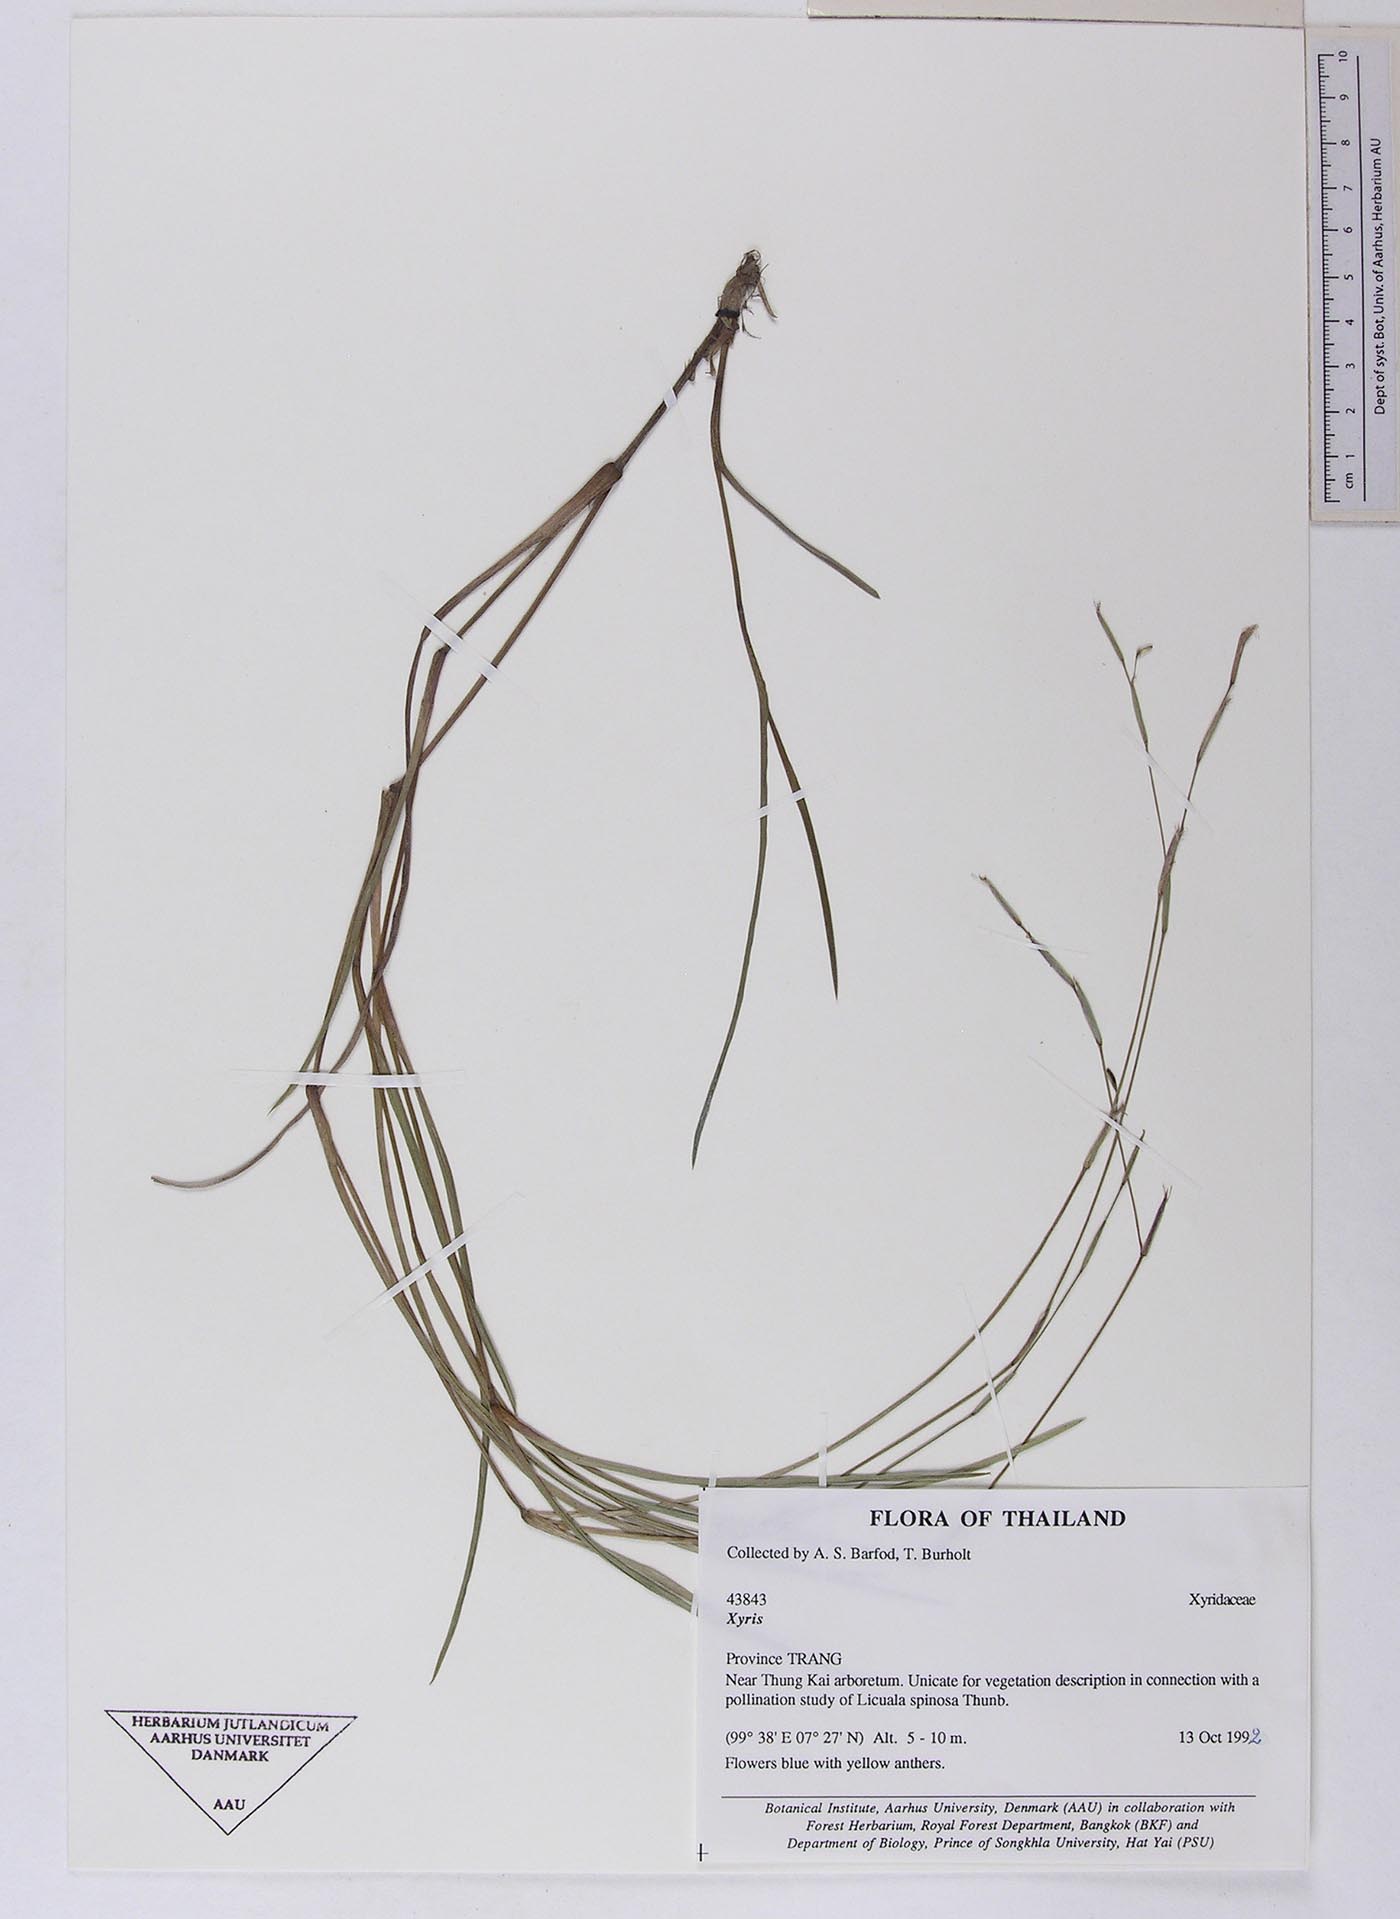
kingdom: Plantae
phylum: Tracheophyta
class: Liliopsida
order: Commelinales
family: Commelinaceae
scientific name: Commelinaceae
